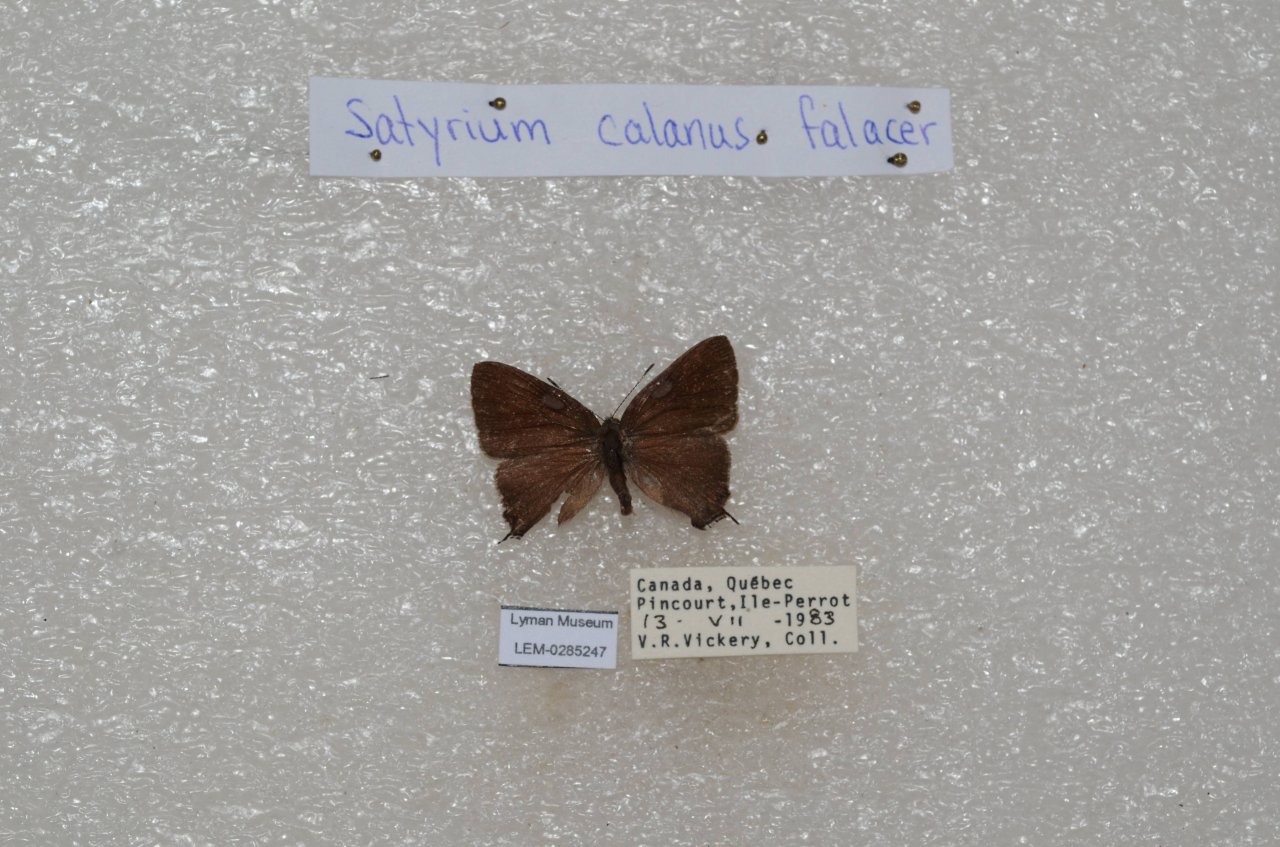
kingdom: Animalia
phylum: Arthropoda
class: Insecta
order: Lepidoptera
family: Lycaenidae
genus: Satyrium
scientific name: Satyrium calanus
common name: Banded Hairstreak
